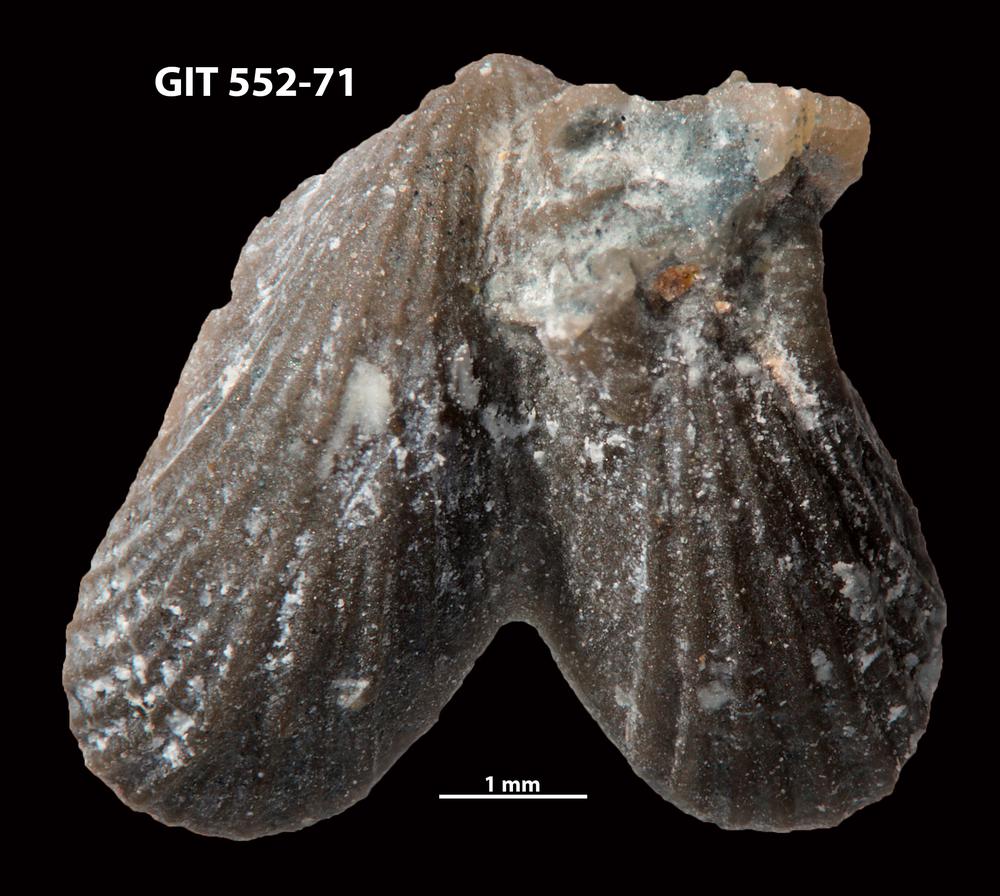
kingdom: Animalia
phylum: Brachiopoda
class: Rhynchonellata
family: Dicoelosiidae
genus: Dicoelosia
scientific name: Dicoelosia osloensis
